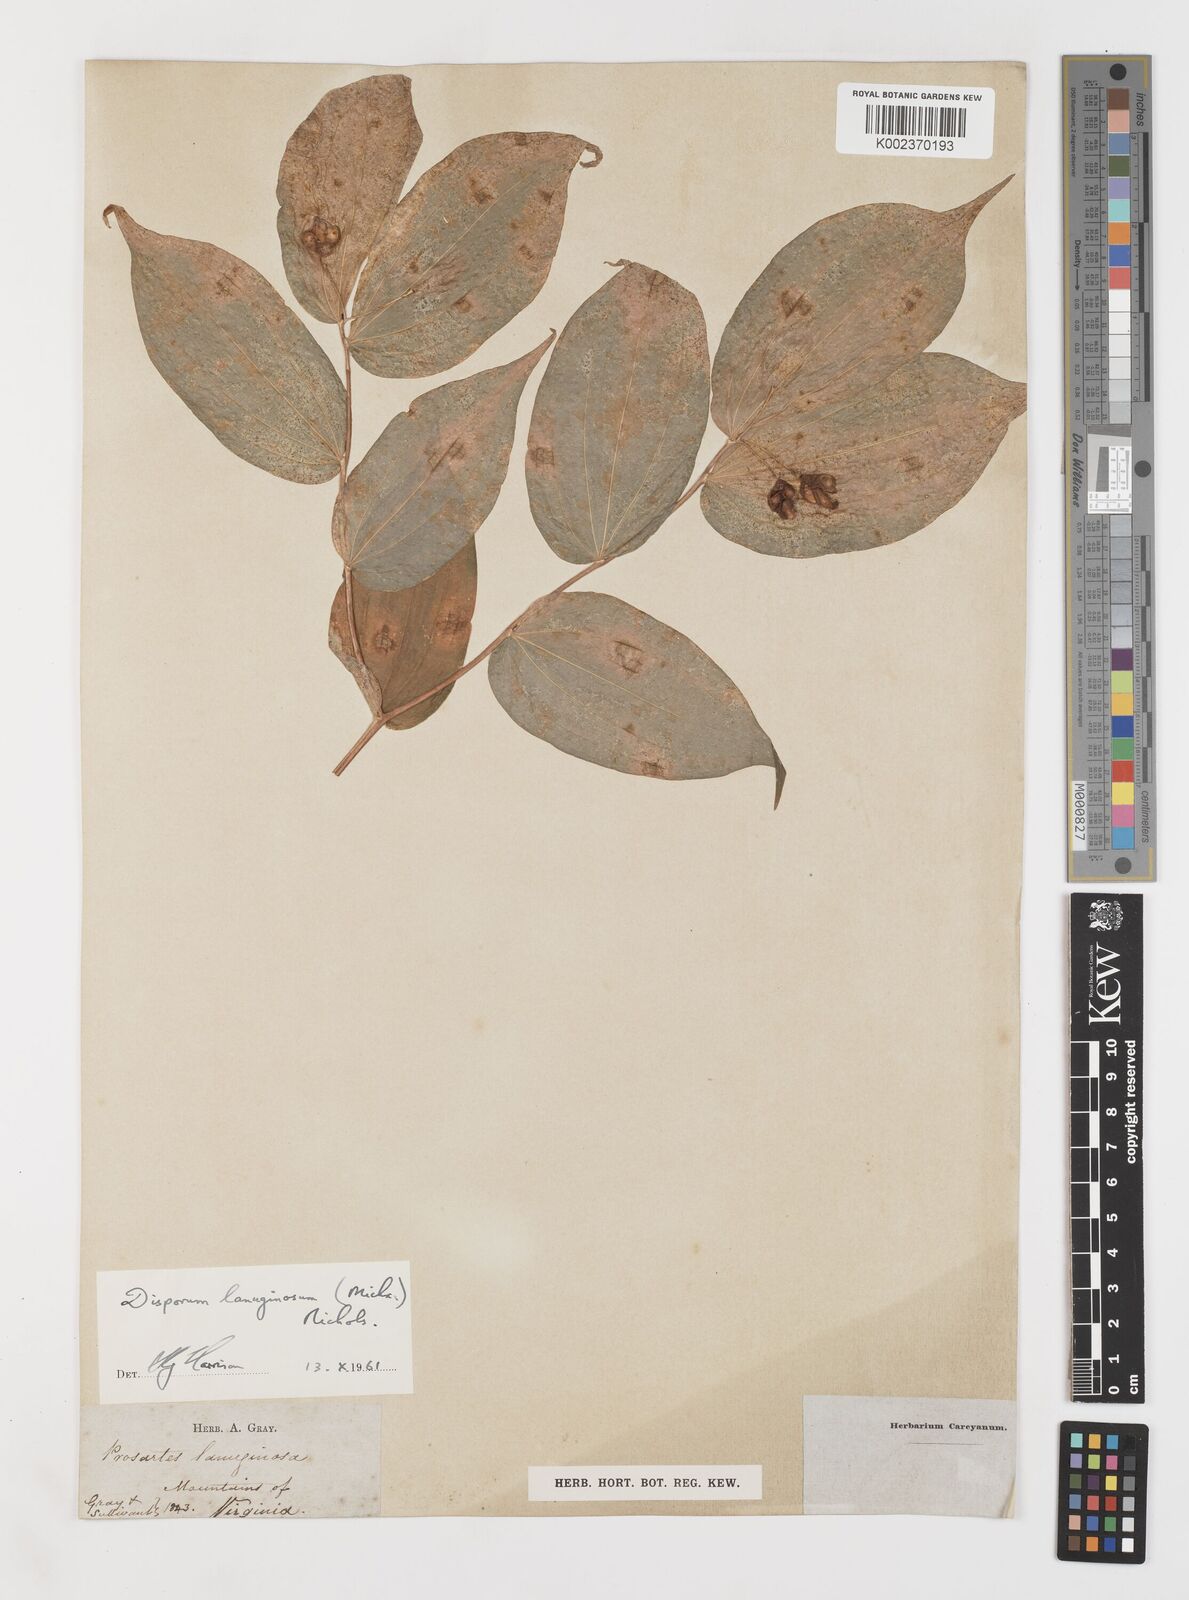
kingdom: Plantae
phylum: Tracheophyta
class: Liliopsida
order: Liliales
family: Liliaceae
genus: Prosartes
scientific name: Prosartes trachycarpa
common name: Rough-fruit fairy-bells
